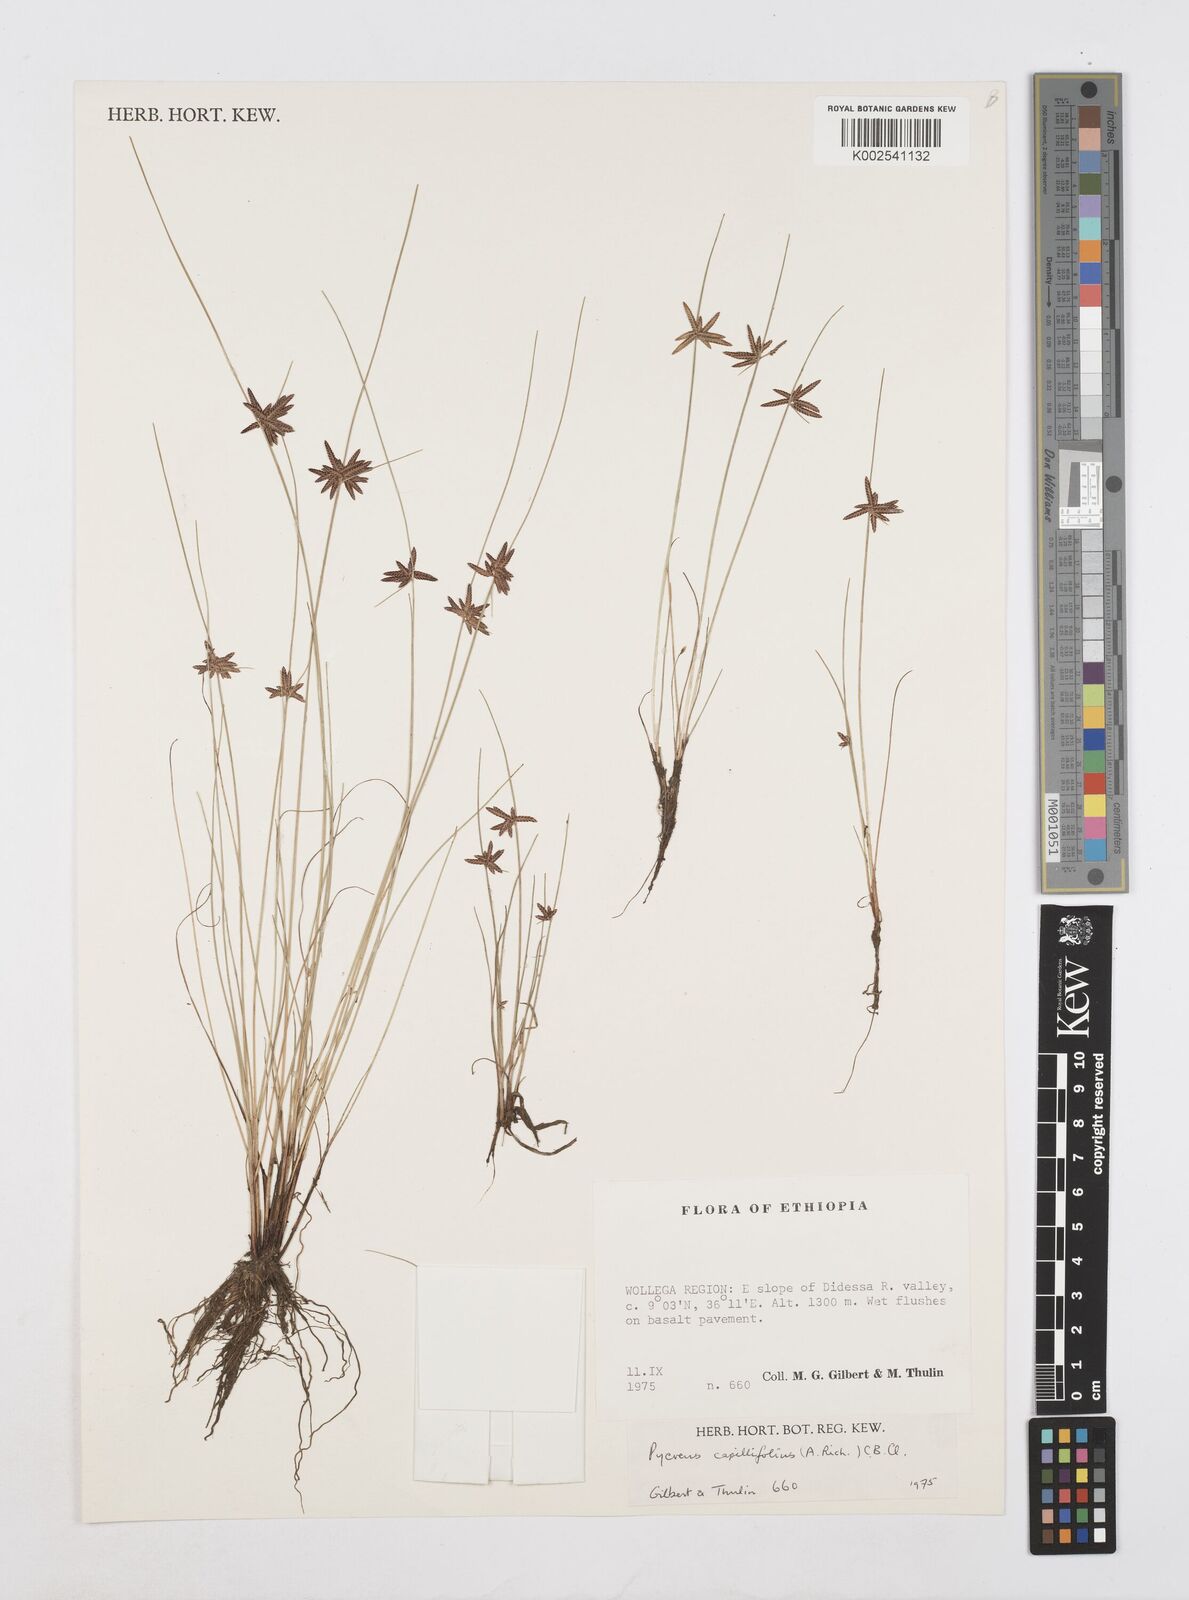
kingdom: Plantae
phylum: Tracheophyta
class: Liliopsida
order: Poales
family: Cyperaceae
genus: Cyperus
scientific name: Cyperus capillifolius
